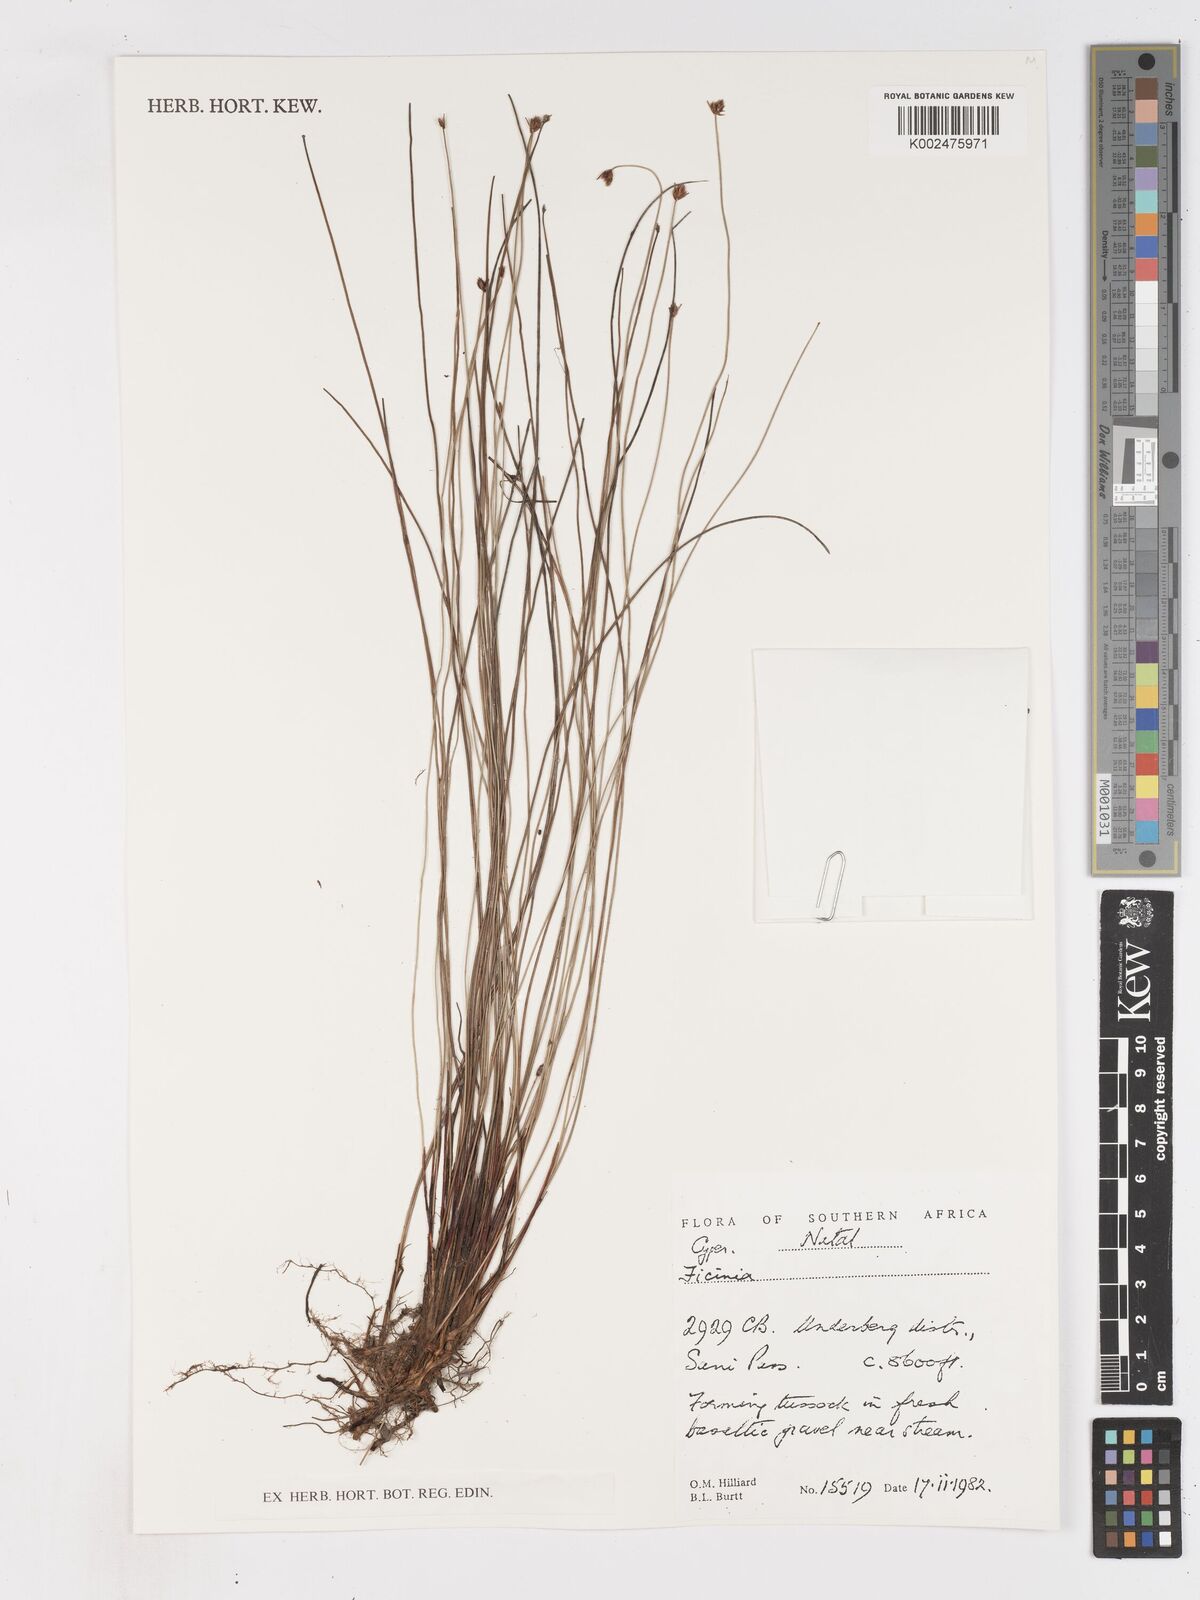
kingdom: Plantae
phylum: Tracheophyta
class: Liliopsida
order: Poales
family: Cyperaceae
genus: Ficinia
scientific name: Ficinia filiculmea
